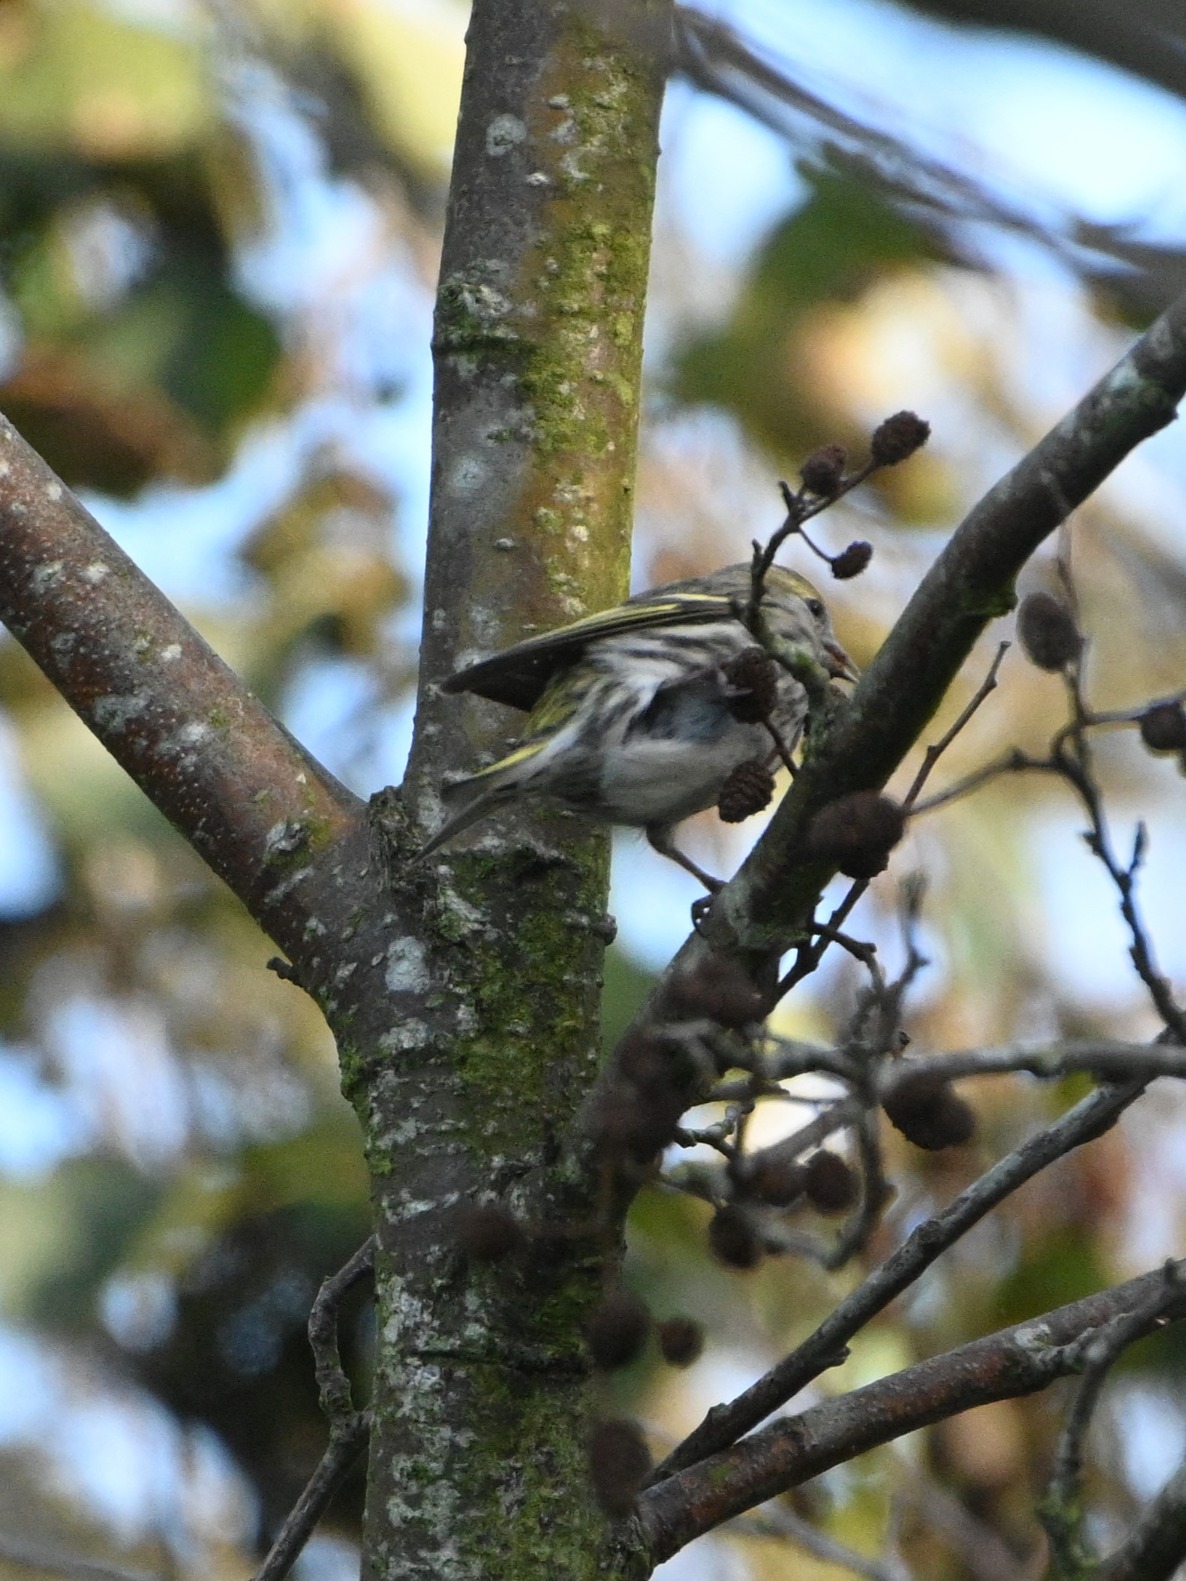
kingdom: Animalia
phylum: Chordata
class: Aves
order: Passeriformes
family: Fringillidae
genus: Spinus
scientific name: Spinus spinus
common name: Grønsisken
